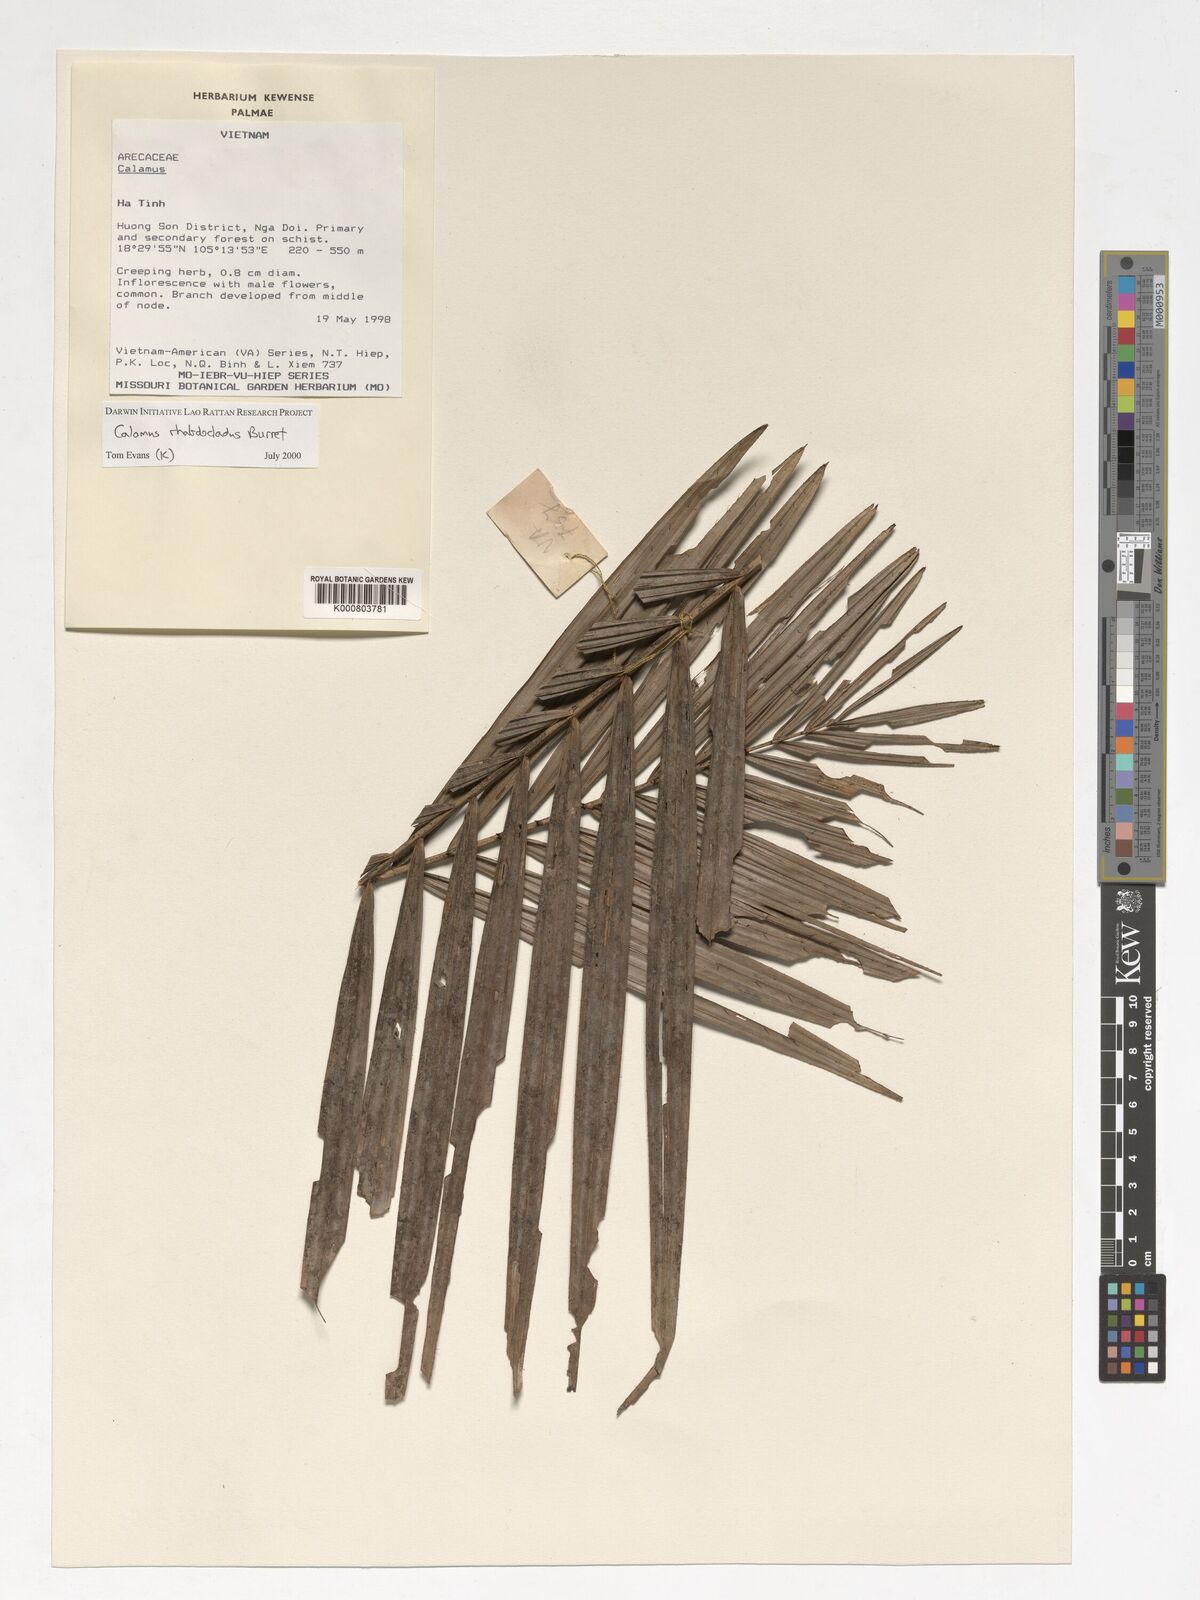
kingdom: Plantae
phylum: Tracheophyta
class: Liliopsida
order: Arecales
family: Arecaceae
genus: Calamus
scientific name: Calamus rhabdocladus
